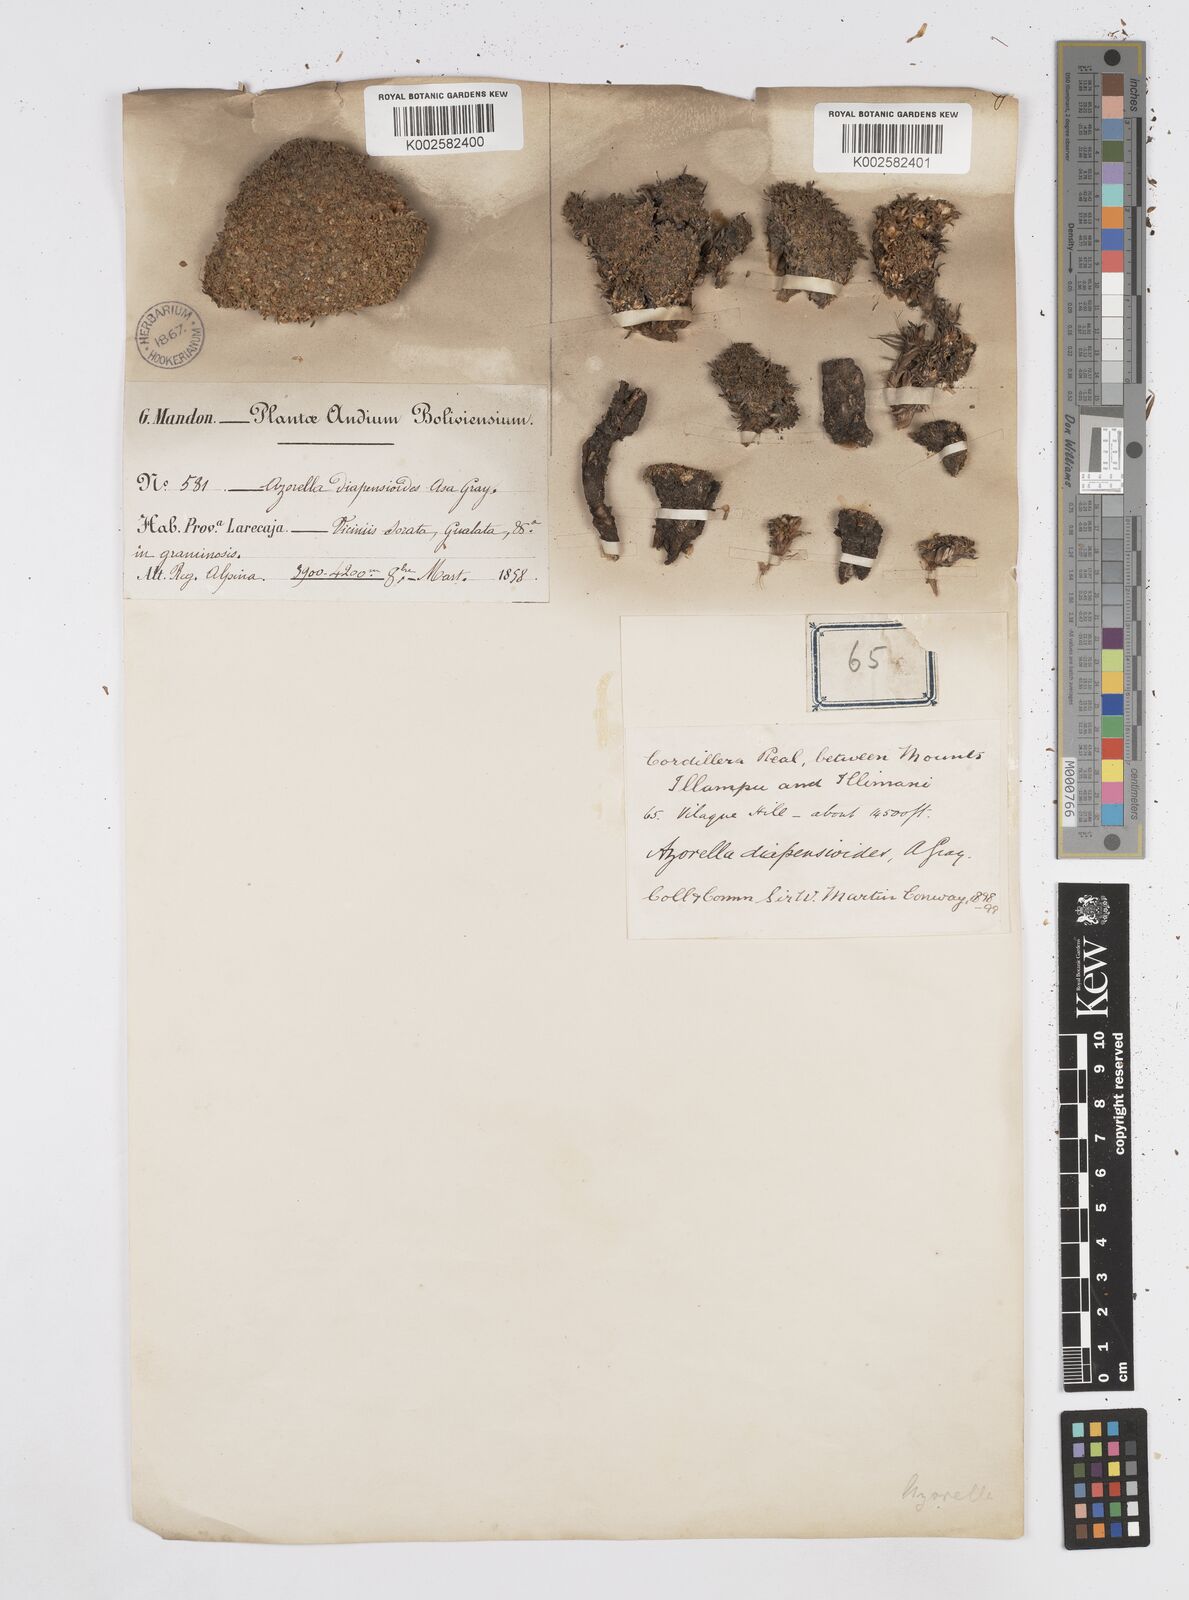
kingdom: Plantae
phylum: Tracheophyta
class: Magnoliopsida
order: Apiales
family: Apiaceae
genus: Azorella
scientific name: Azorella diapensioides
